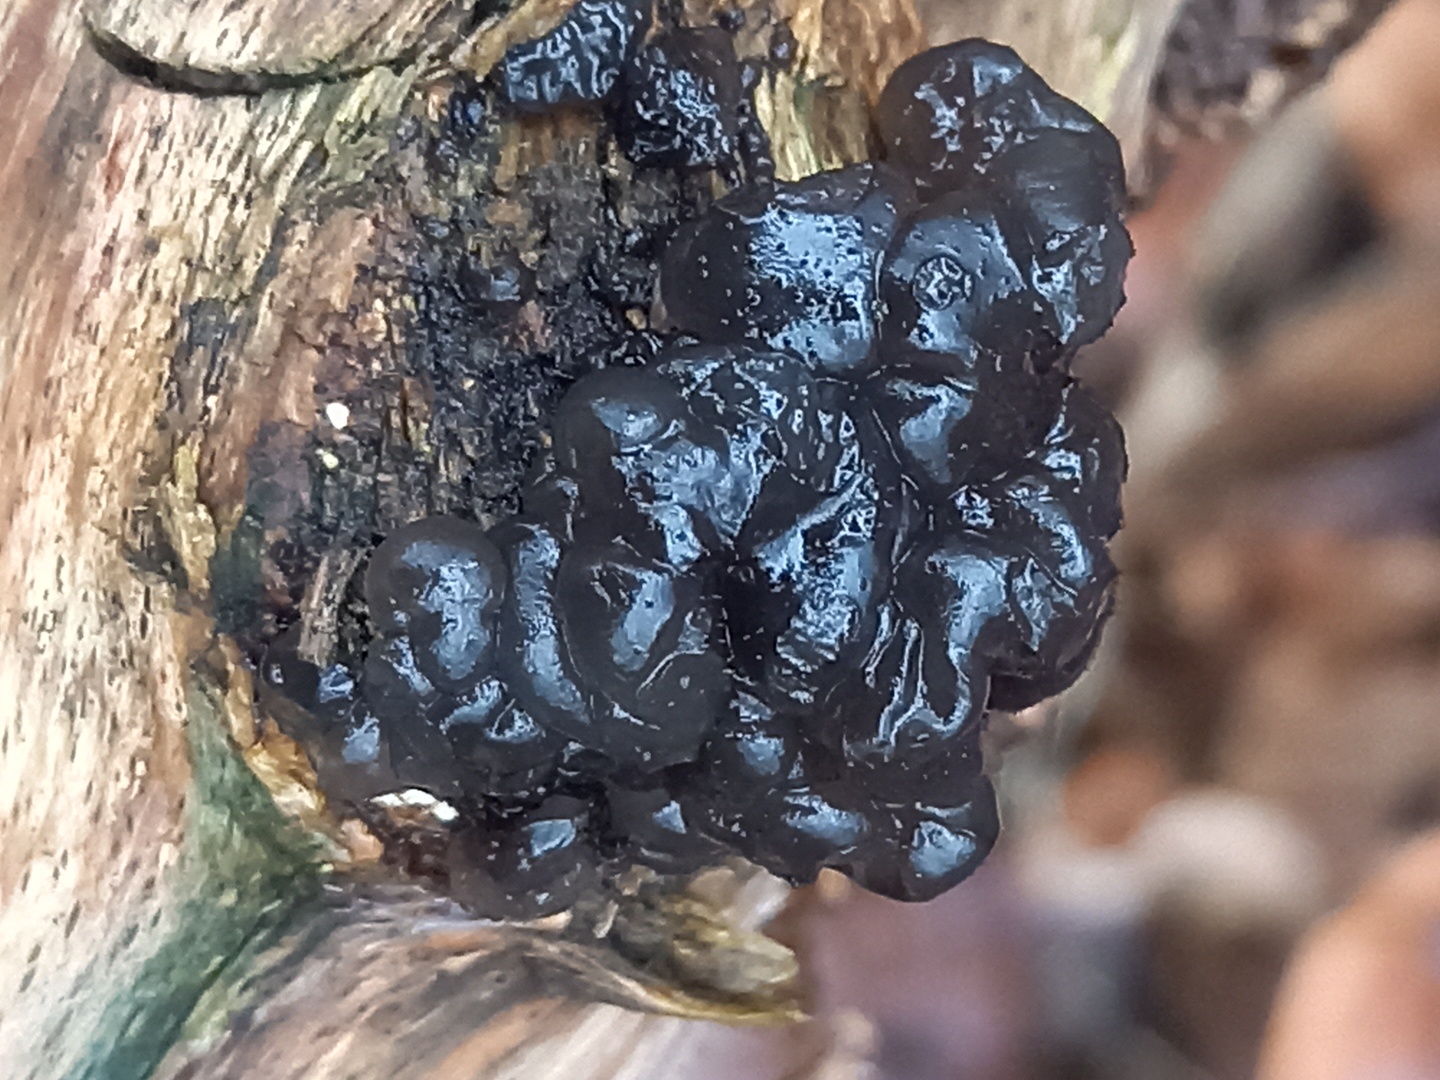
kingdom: Fungi
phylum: Basidiomycota
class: Agaricomycetes
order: Auriculariales
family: Auriculariaceae
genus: Exidia
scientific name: Exidia nigricans
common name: almindelig bævretop
